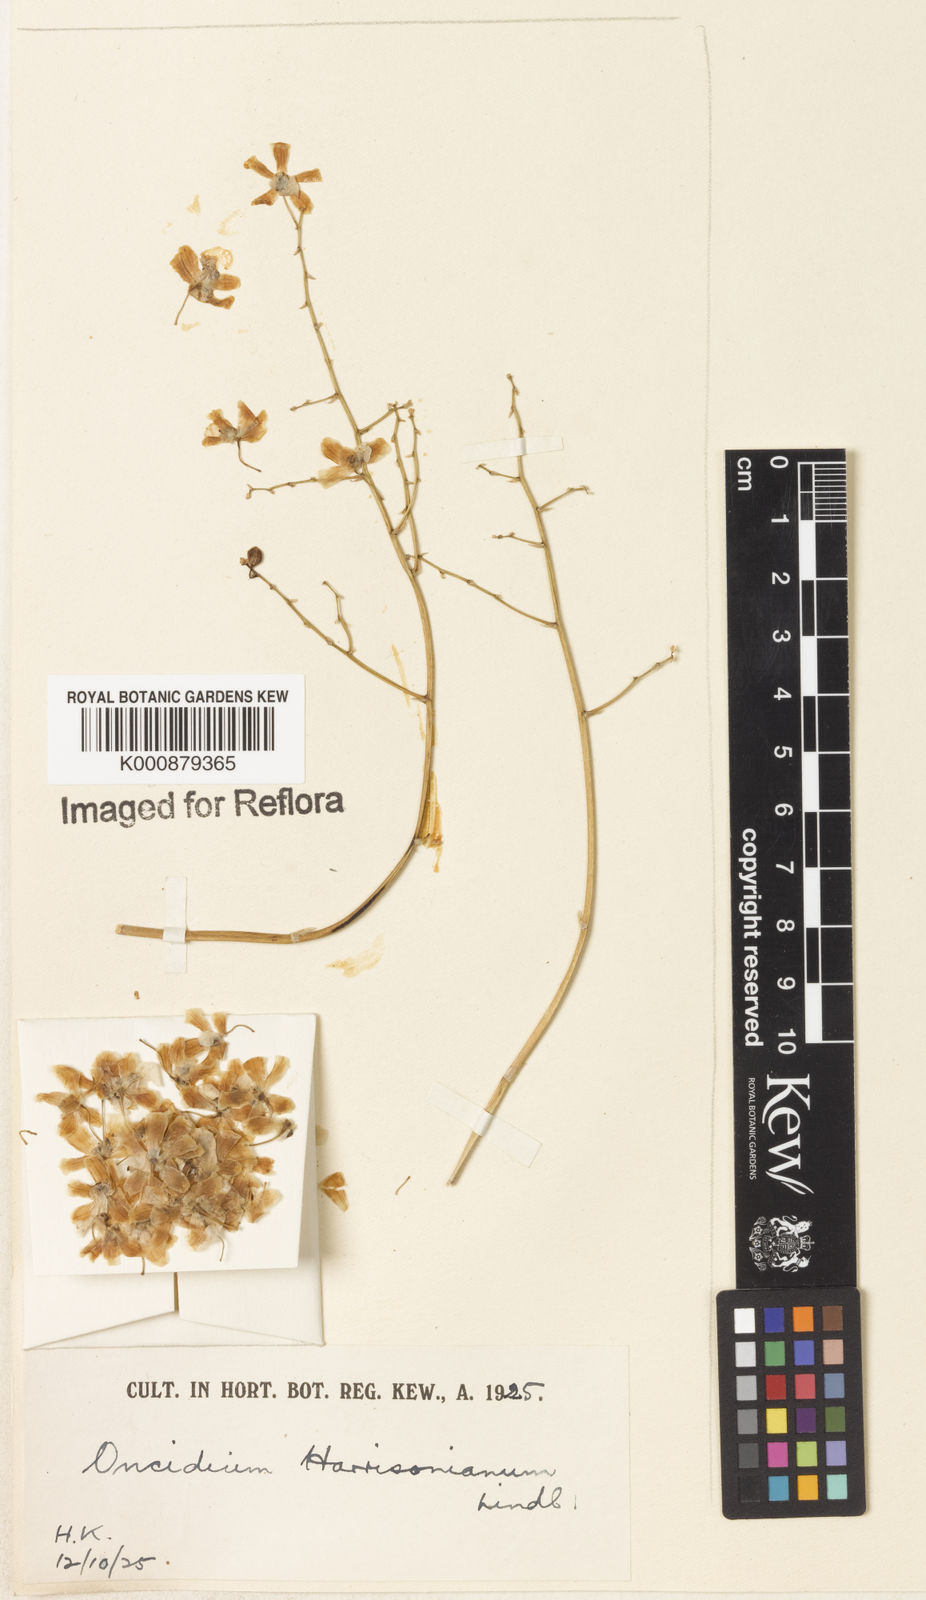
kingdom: Plantae
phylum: Tracheophyta
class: Liliopsida
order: Asparagales
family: Orchidaceae
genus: Grandiphyllum
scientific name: Grandiphyllum auricula
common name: Mule-ear orchid
